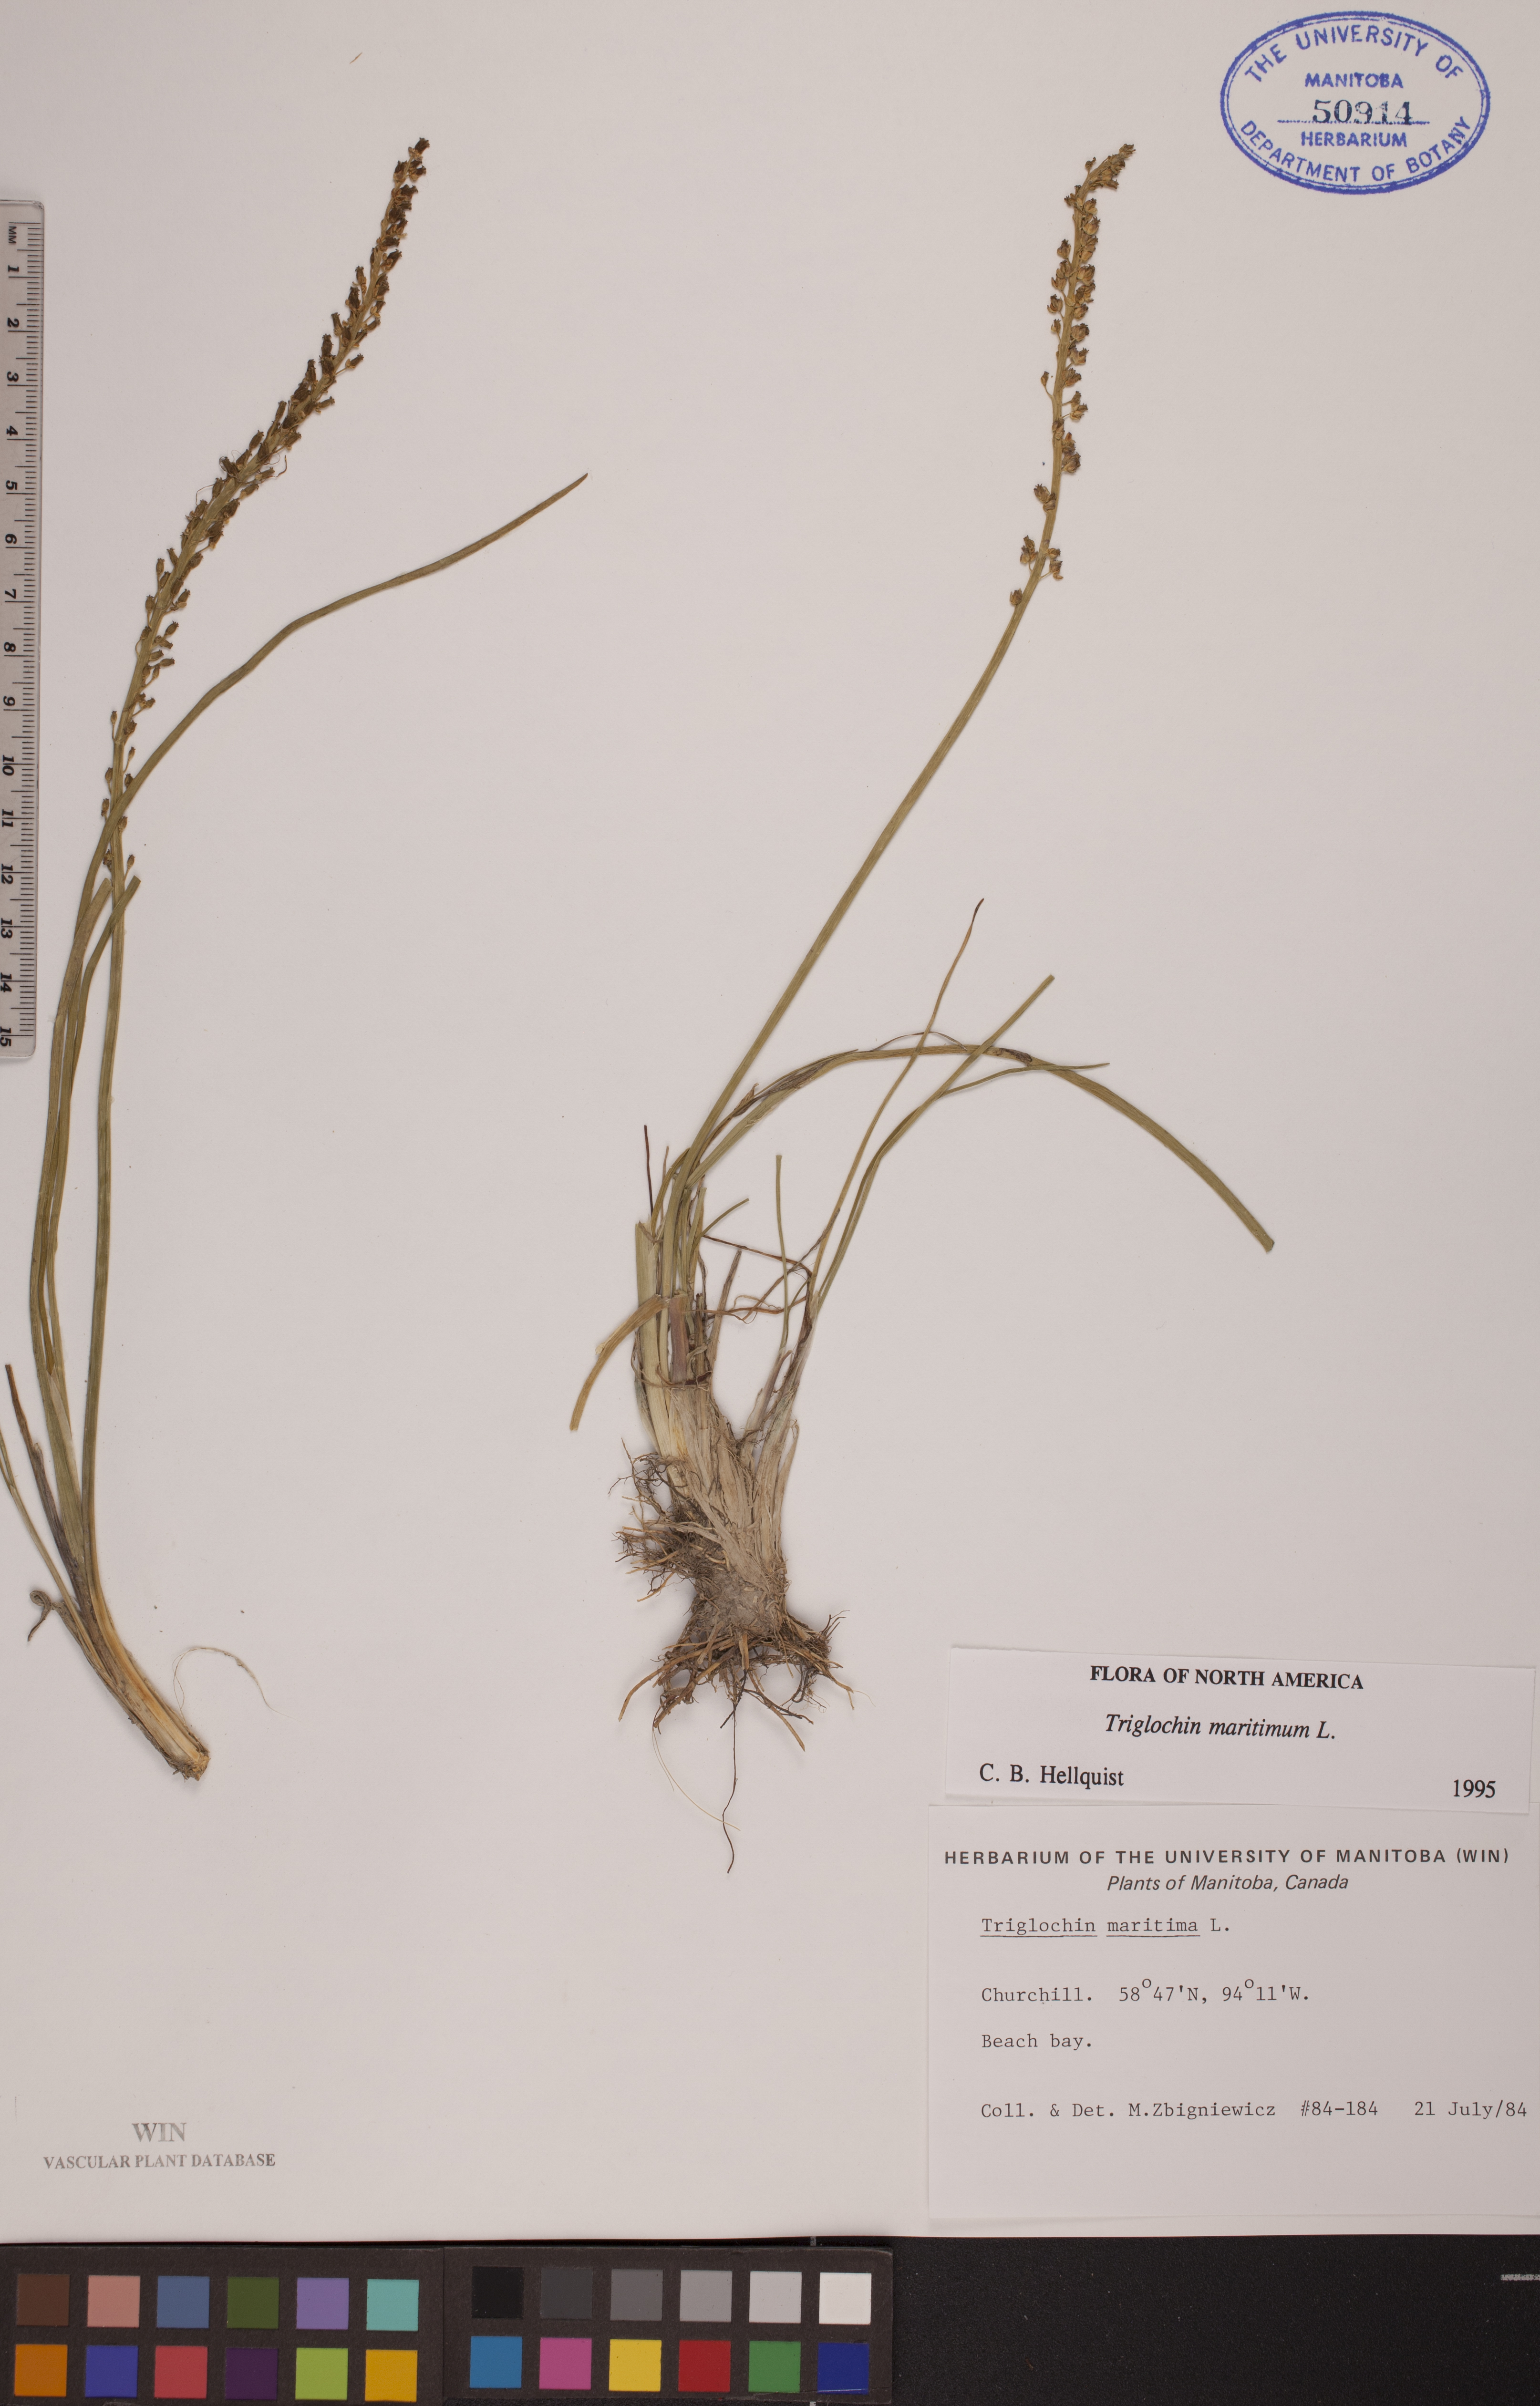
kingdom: Plantae
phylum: Tracheophyta
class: Liliopsida
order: Alismatales
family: Juncaginaceae
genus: Triglochin
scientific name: Triglochin maritima
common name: Sea arrowgrass
